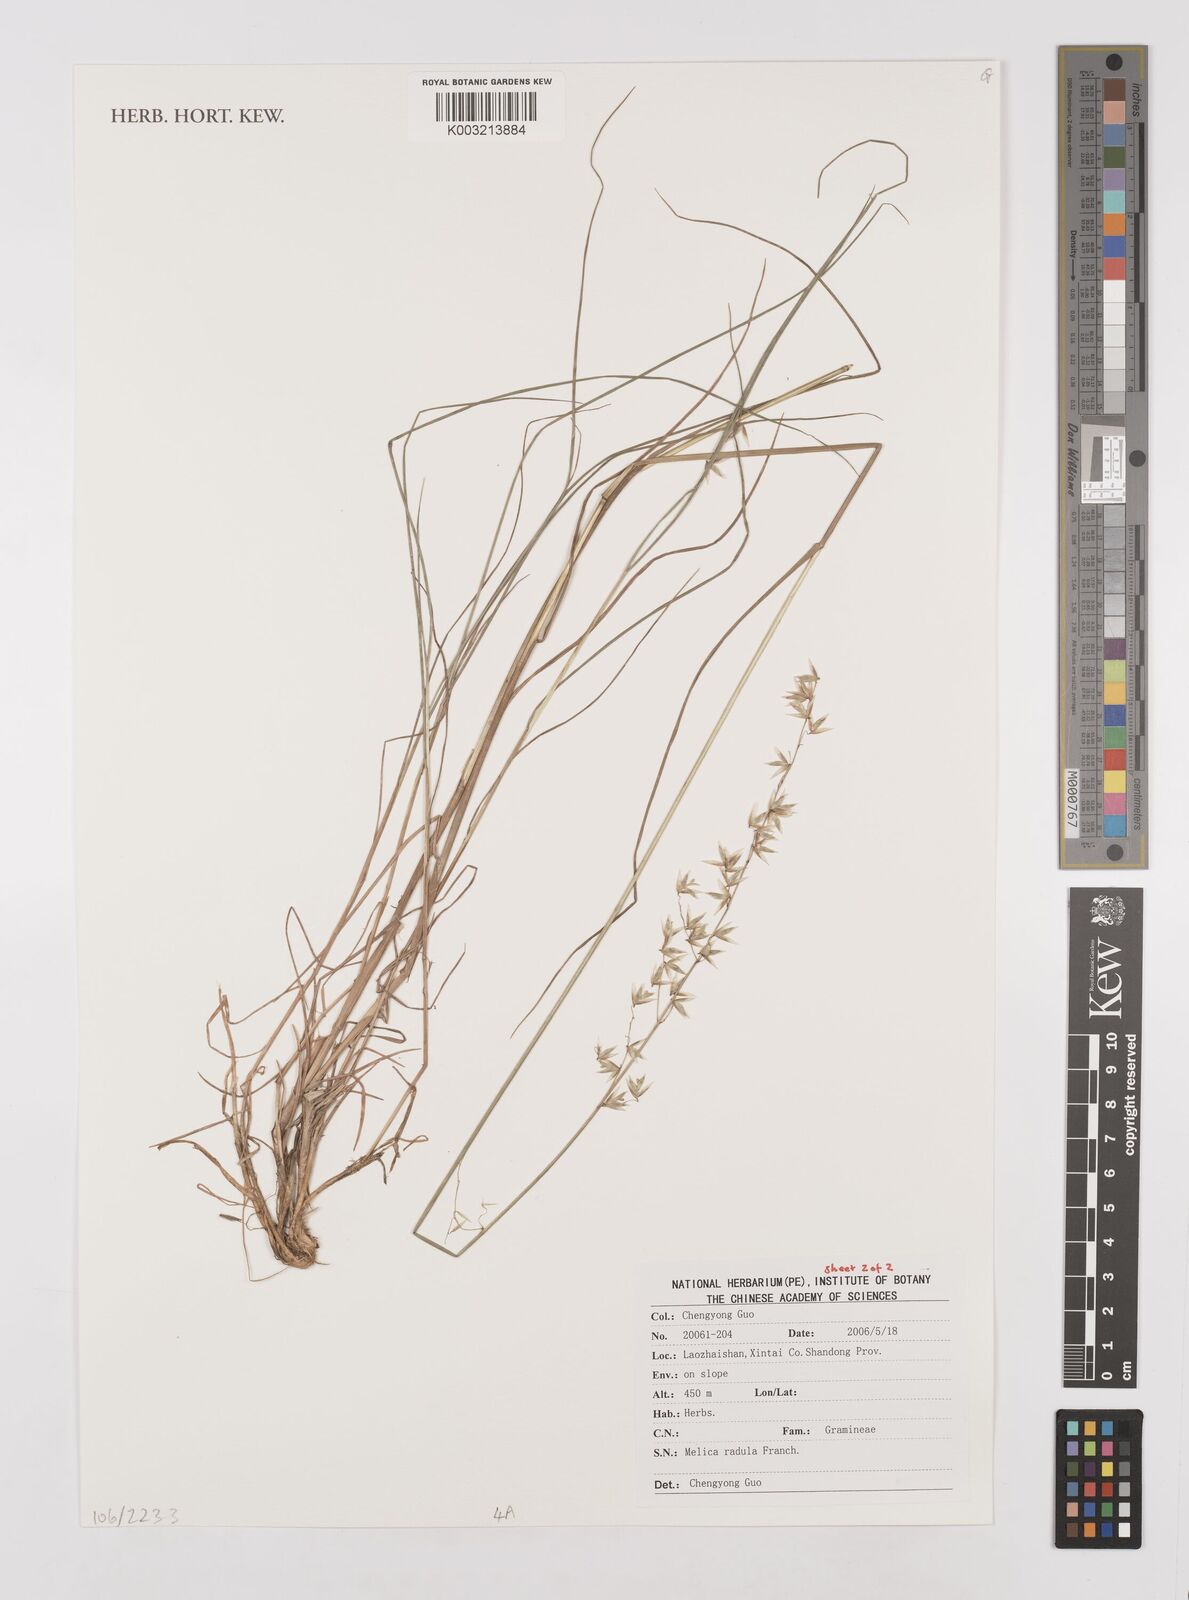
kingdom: Plantae
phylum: Tracheophyta
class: Liliopsida
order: Poales
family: Poaceae
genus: Melica
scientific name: Melica radula
